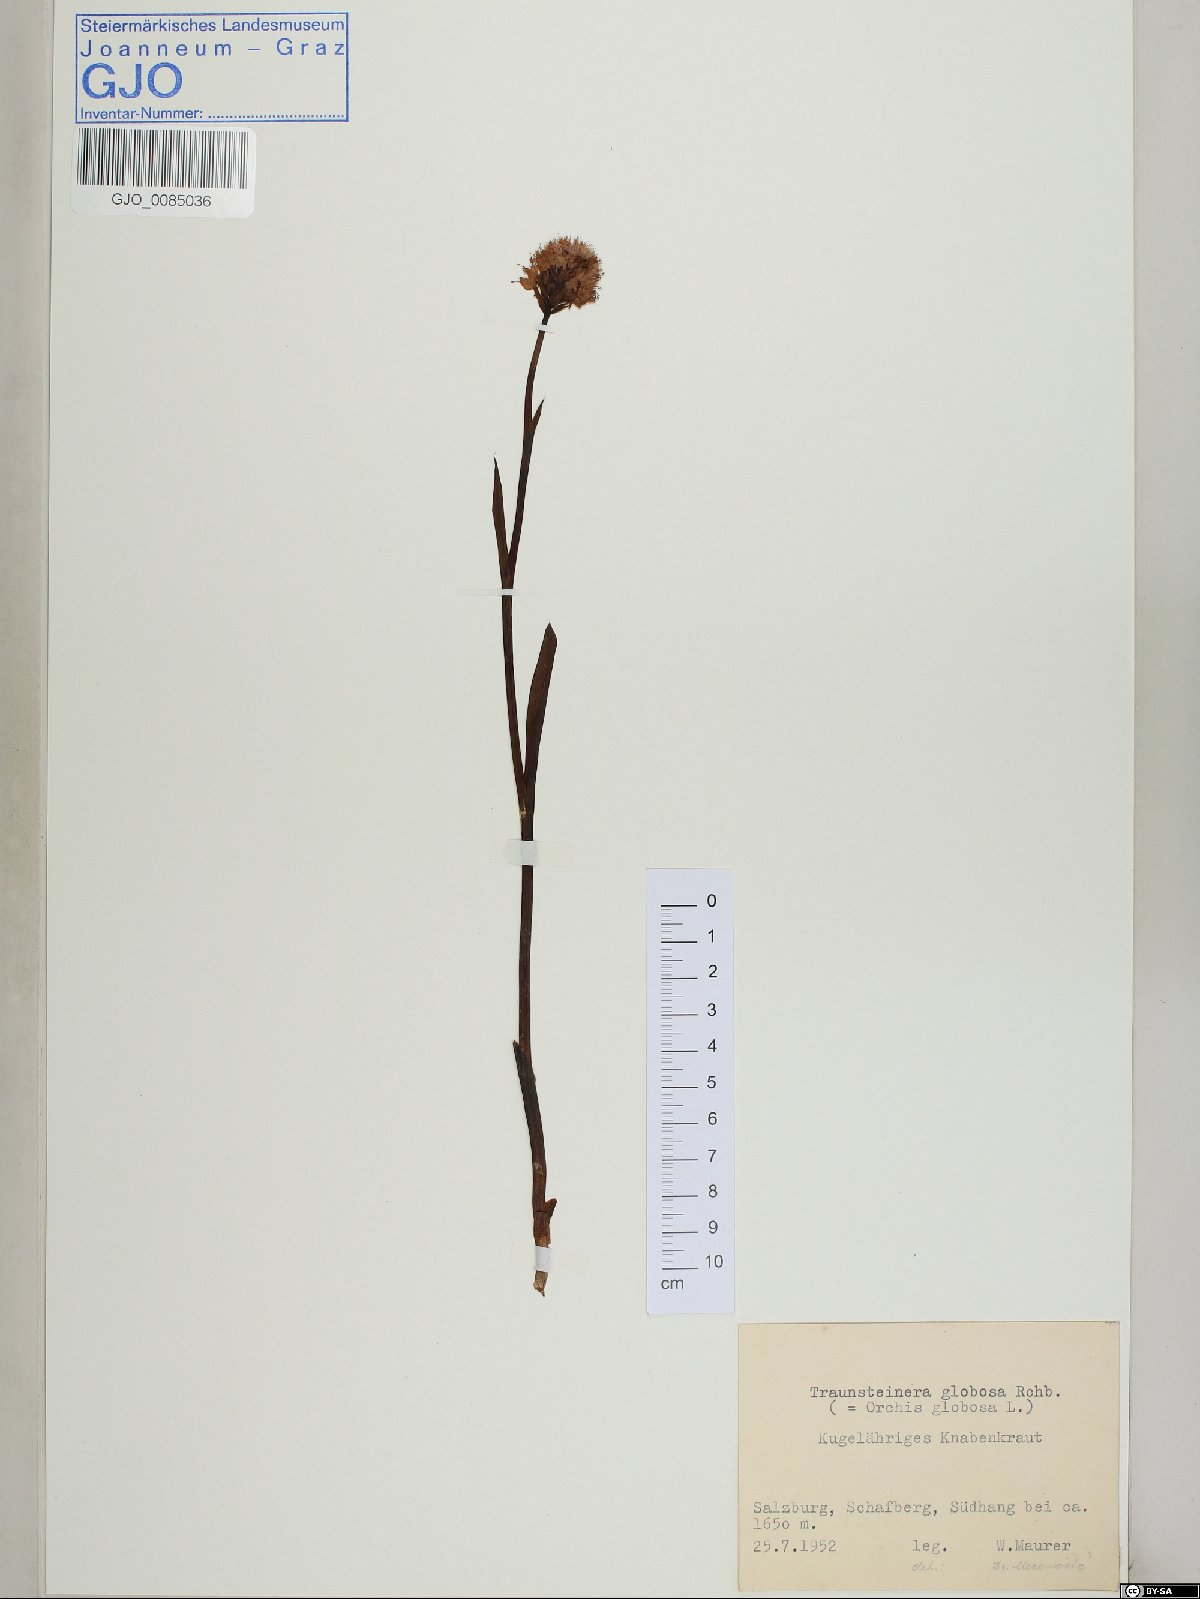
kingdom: Plantae
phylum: Tracheophyta
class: Liliopsida
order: Asparagales
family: Orchidaceae
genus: Traunsteinera
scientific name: Traunsteinera globosa
